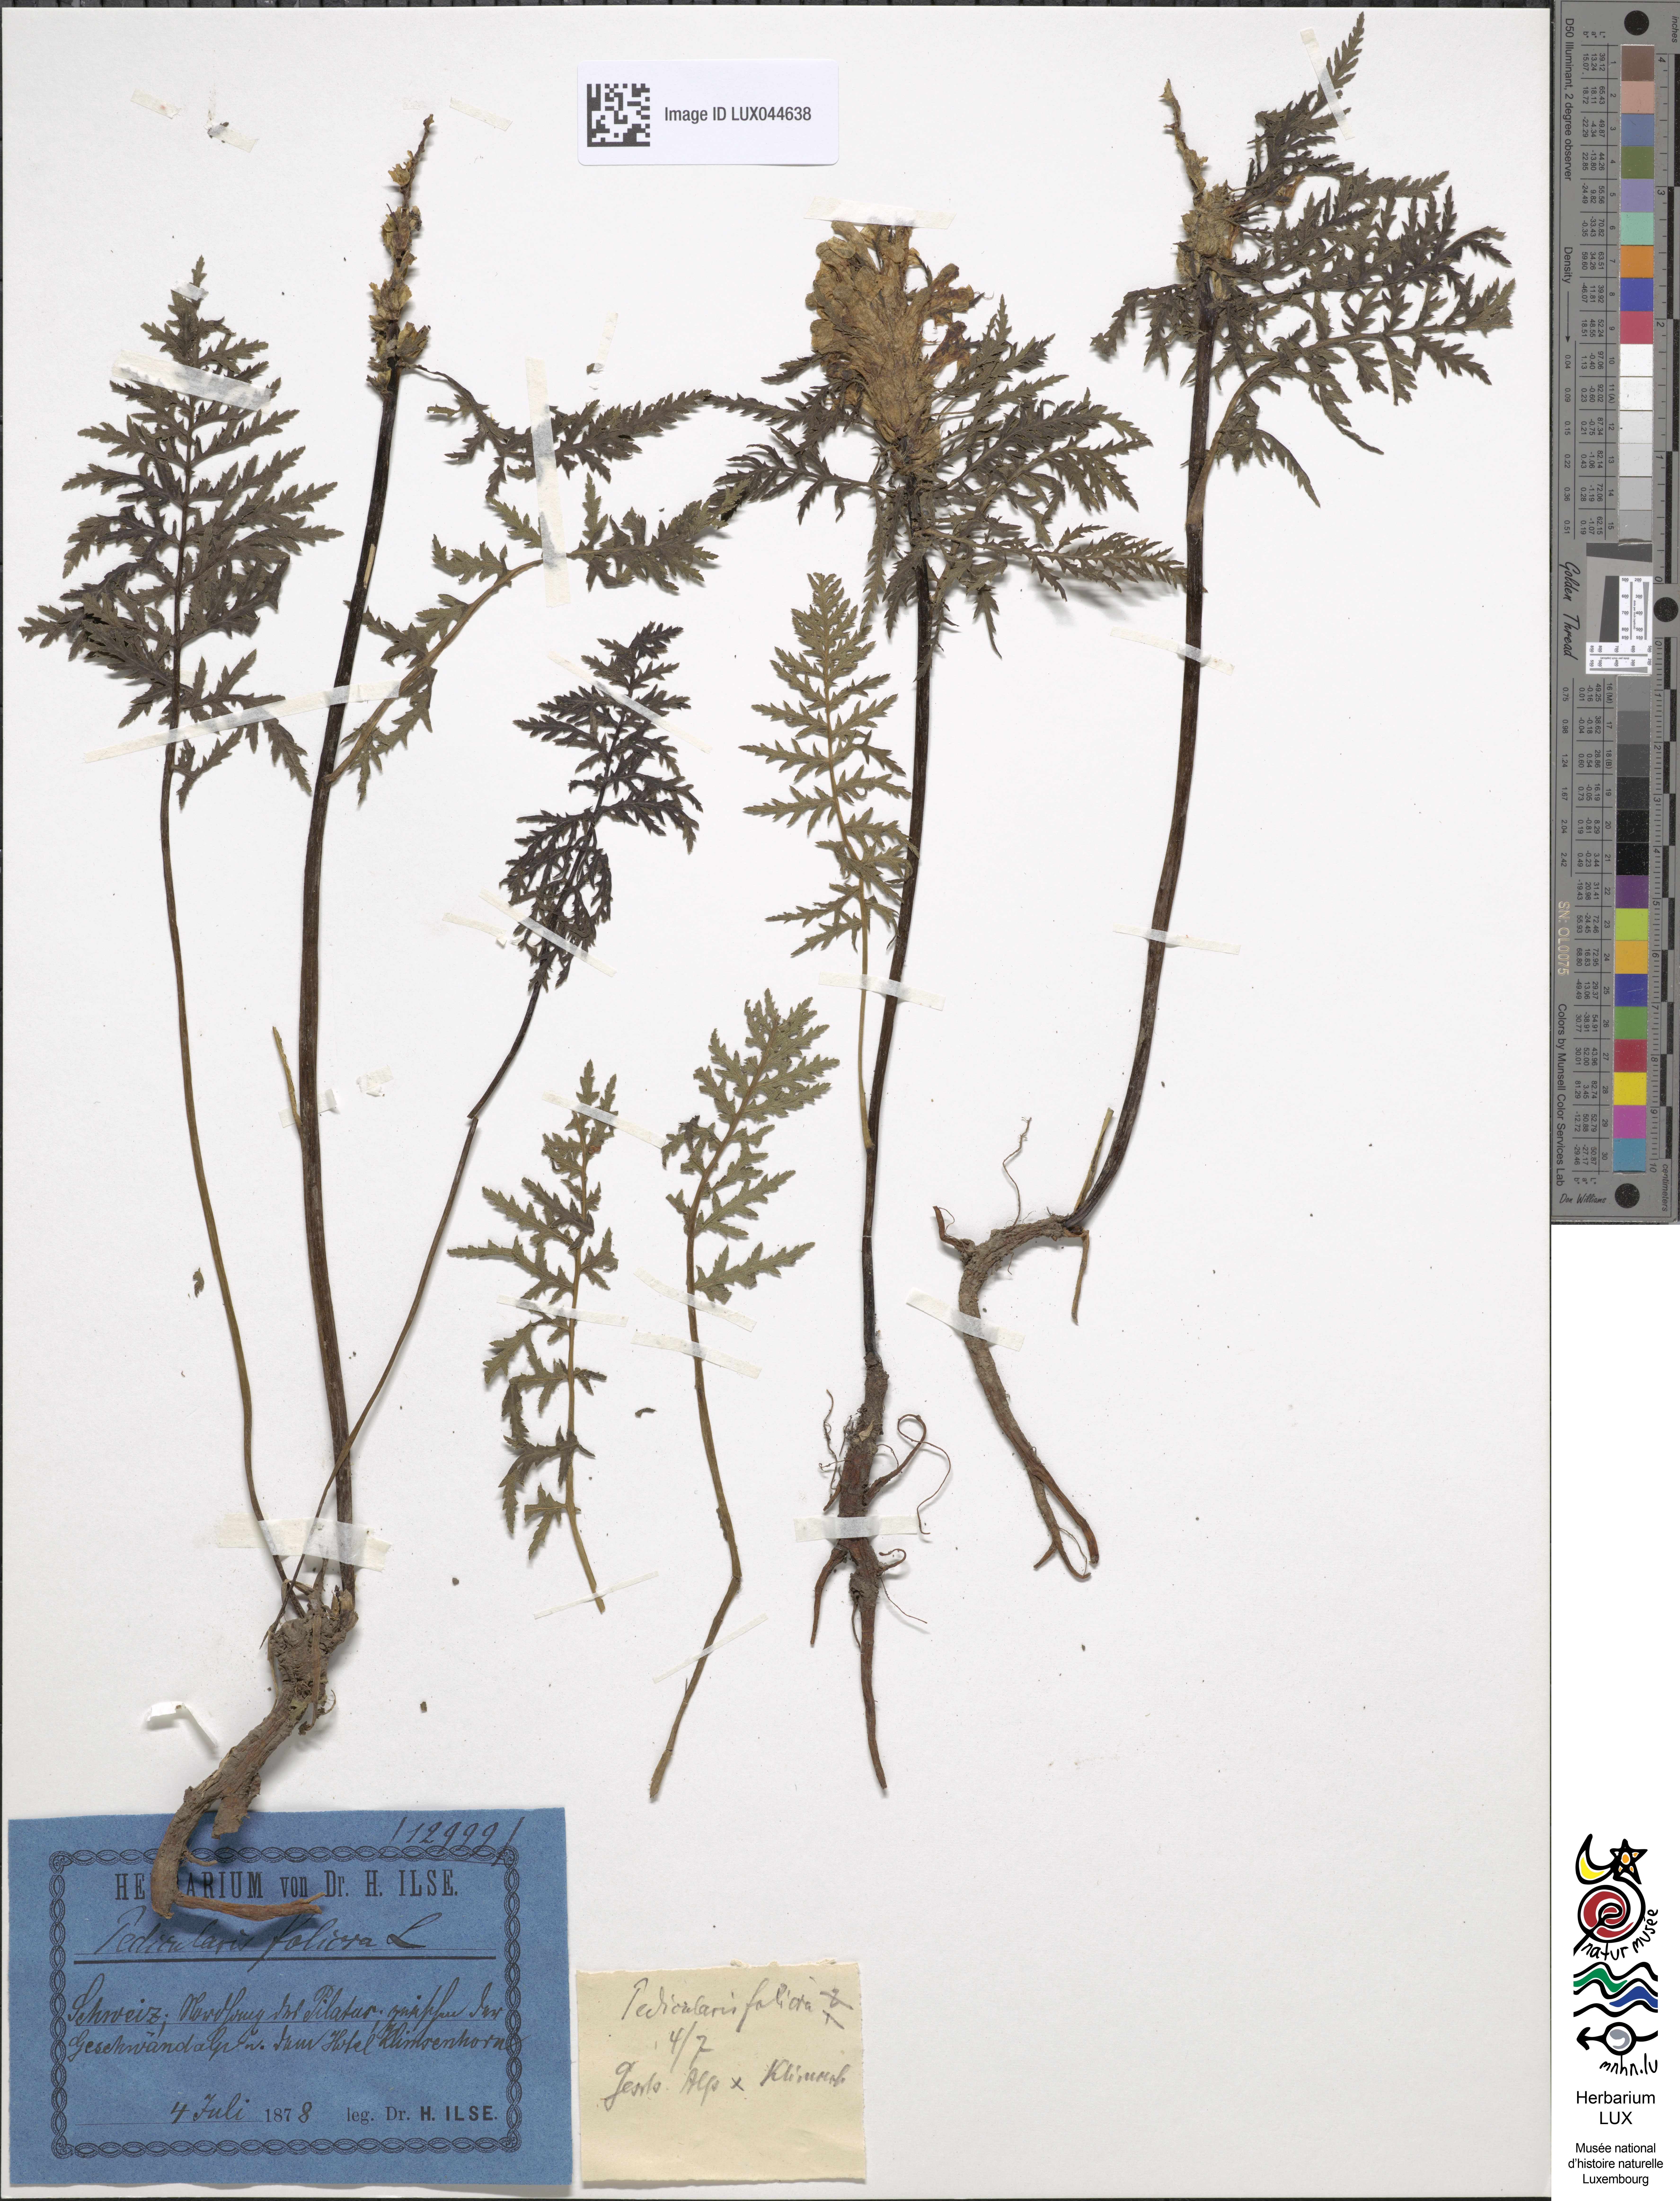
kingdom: Plantae
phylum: Tracheophyta
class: Magnoliopsida
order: Lamiales
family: Orobanchaceae
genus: Pedicularis
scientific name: Pedicularis foliosa
